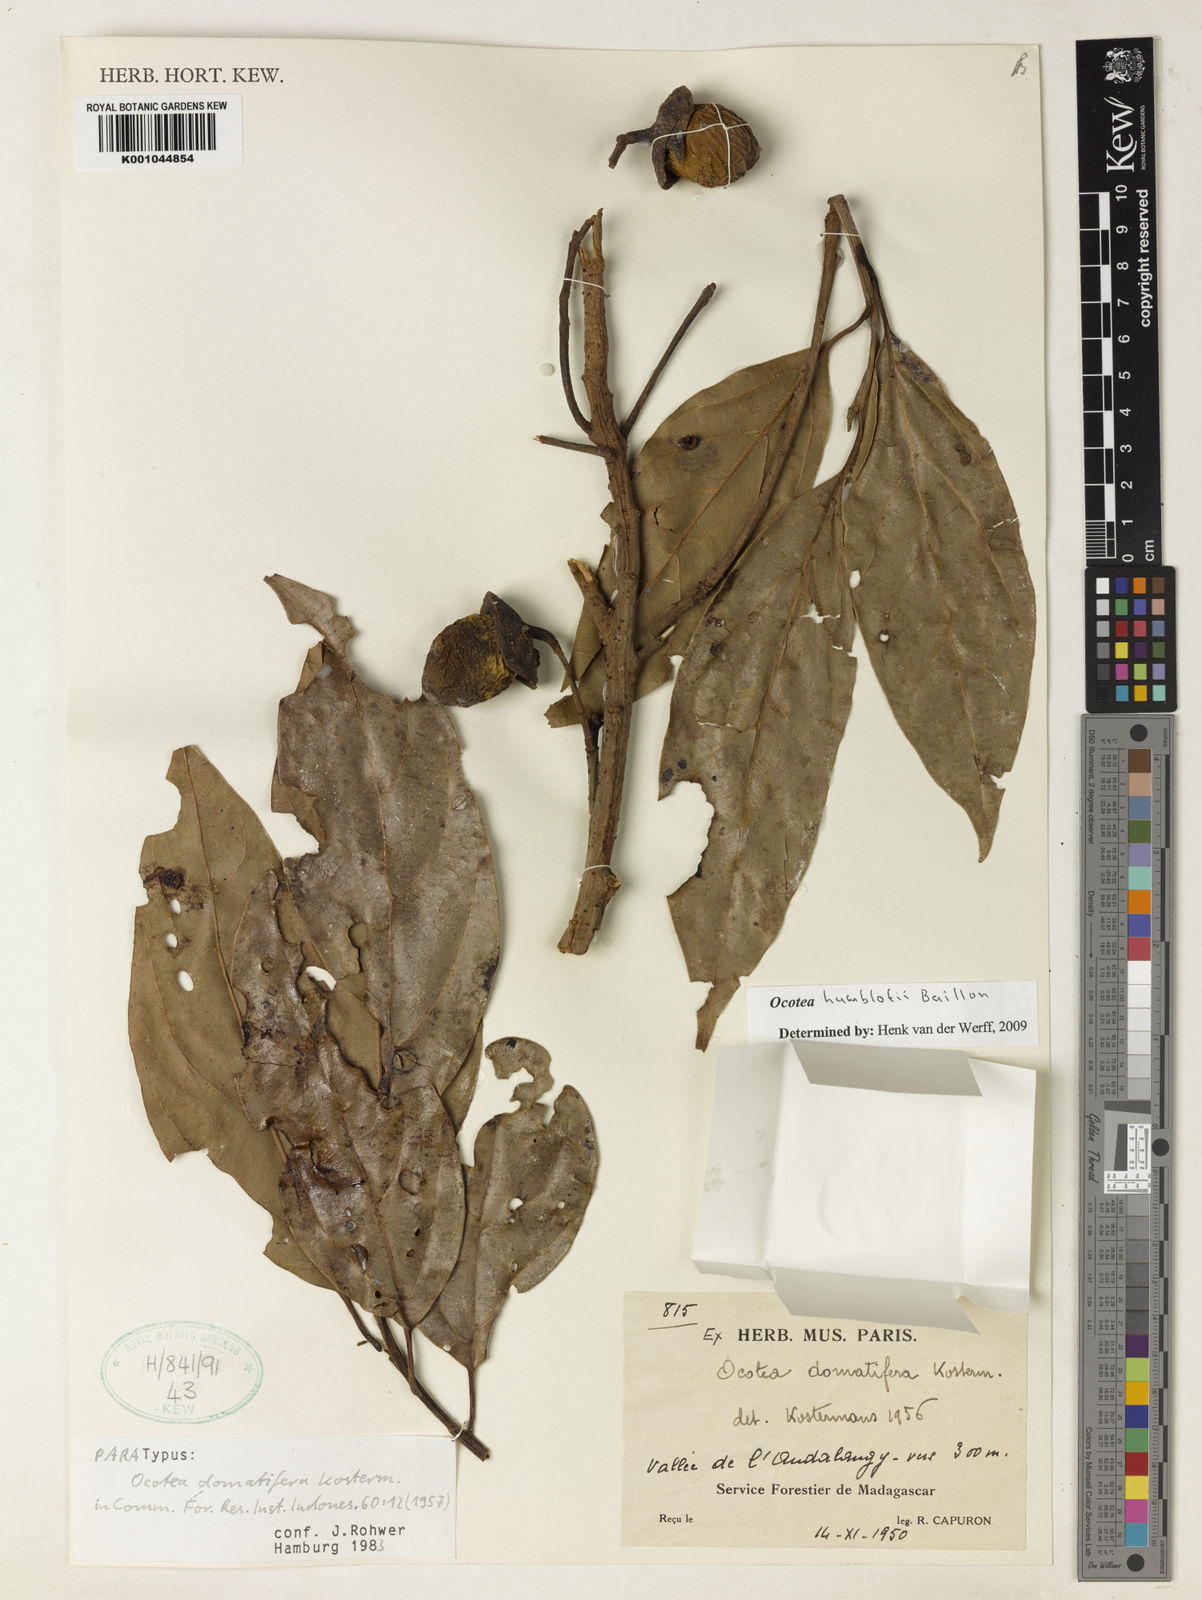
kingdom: Plantae
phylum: Tracheophyta
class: Magnoliopsida
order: Laurales
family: Lauraceae
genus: Ocotea
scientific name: Ocotea humblotii
